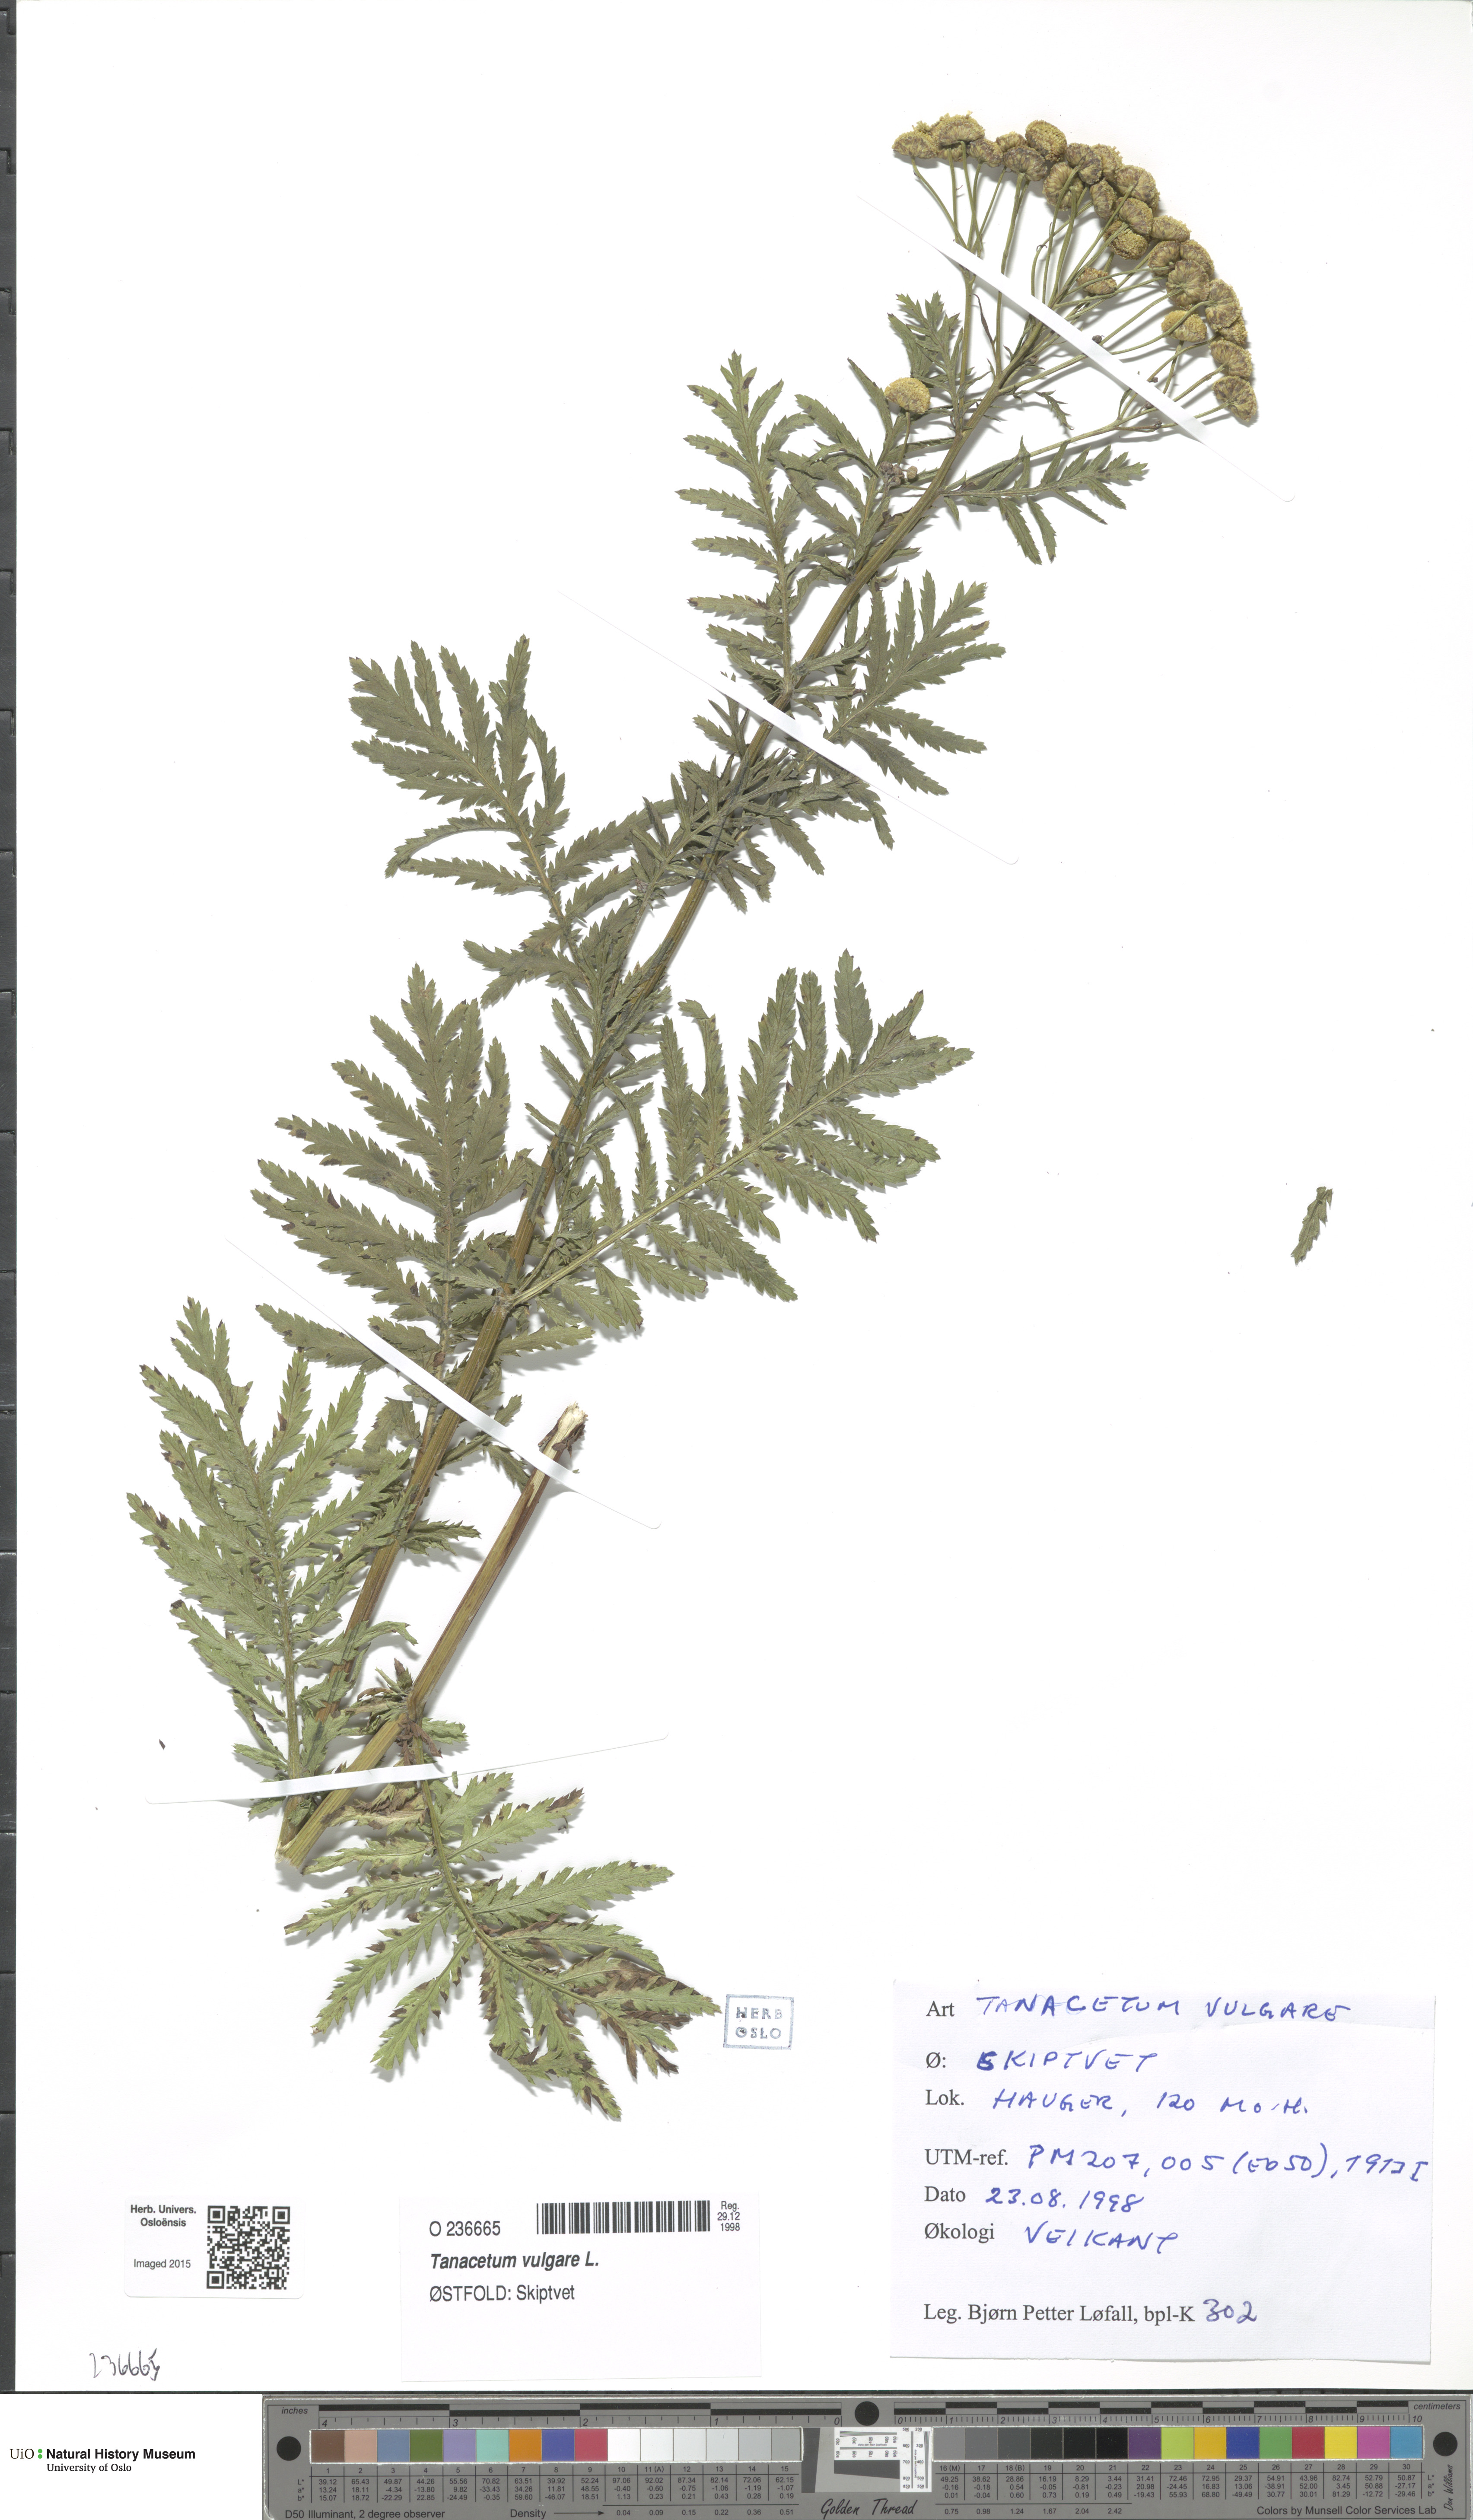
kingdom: Plantae
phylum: Tracheophyta
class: Magnoliopsida
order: Asterales
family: Asteraceae
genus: Tanacetum
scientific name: Tanacetum vulgare
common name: Common tansy
